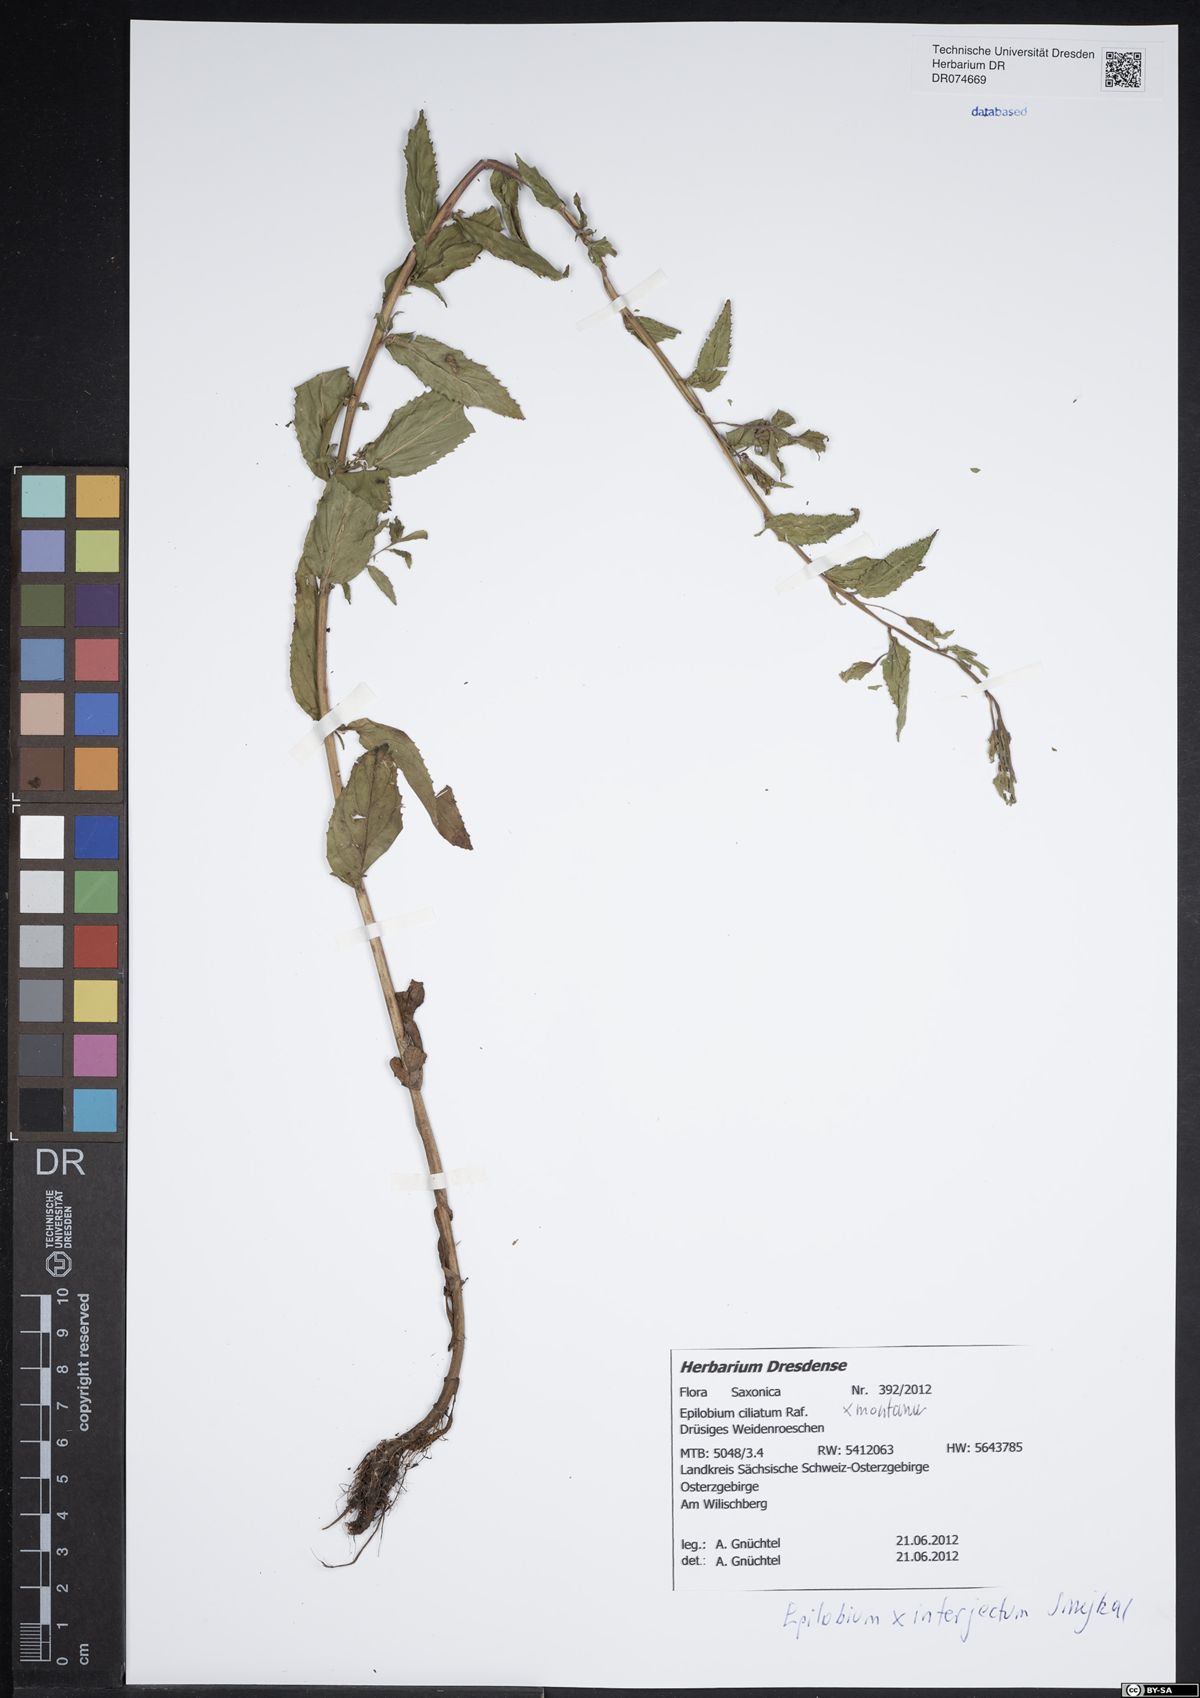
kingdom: Plantae
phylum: Tracheophyta
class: Magnoliopsida
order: Myrtales
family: Onagraceae
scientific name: Onagraceae
